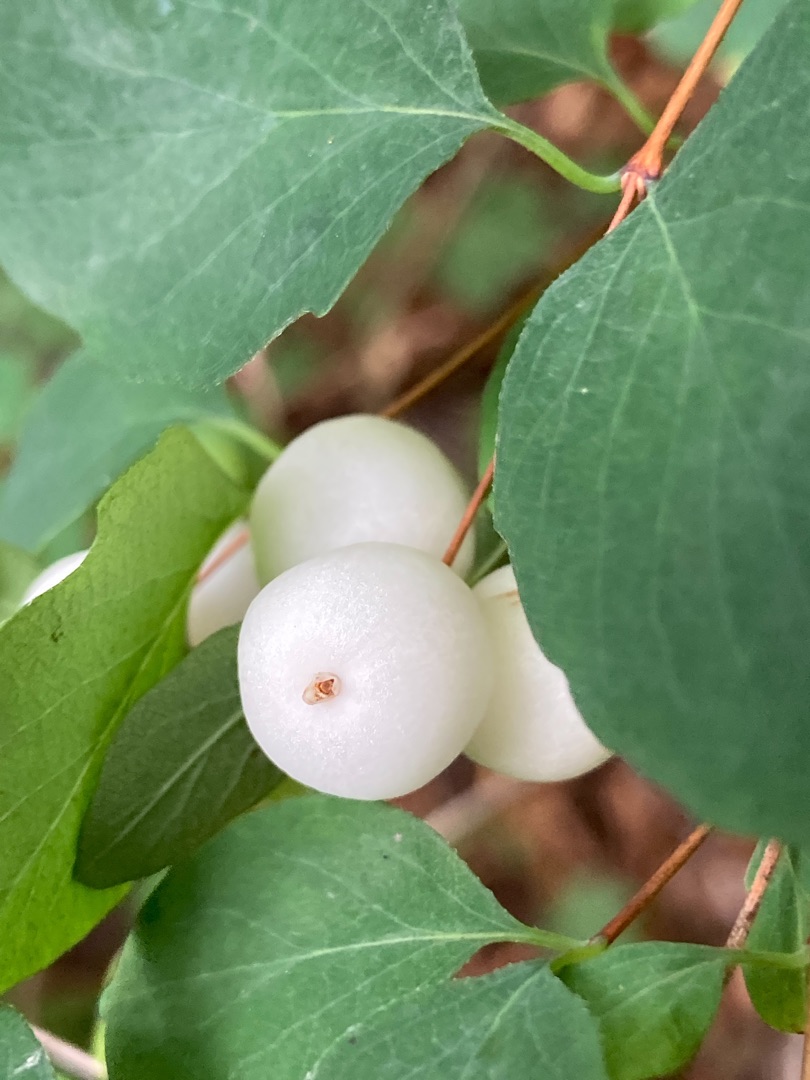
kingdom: Plantae
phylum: Tracheophyta
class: Magnoliopsida
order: Dipsacales
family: Caprifoliaceae
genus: Symphoricarpos
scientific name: Symphoricarpos albus
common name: Almindelig snebær
